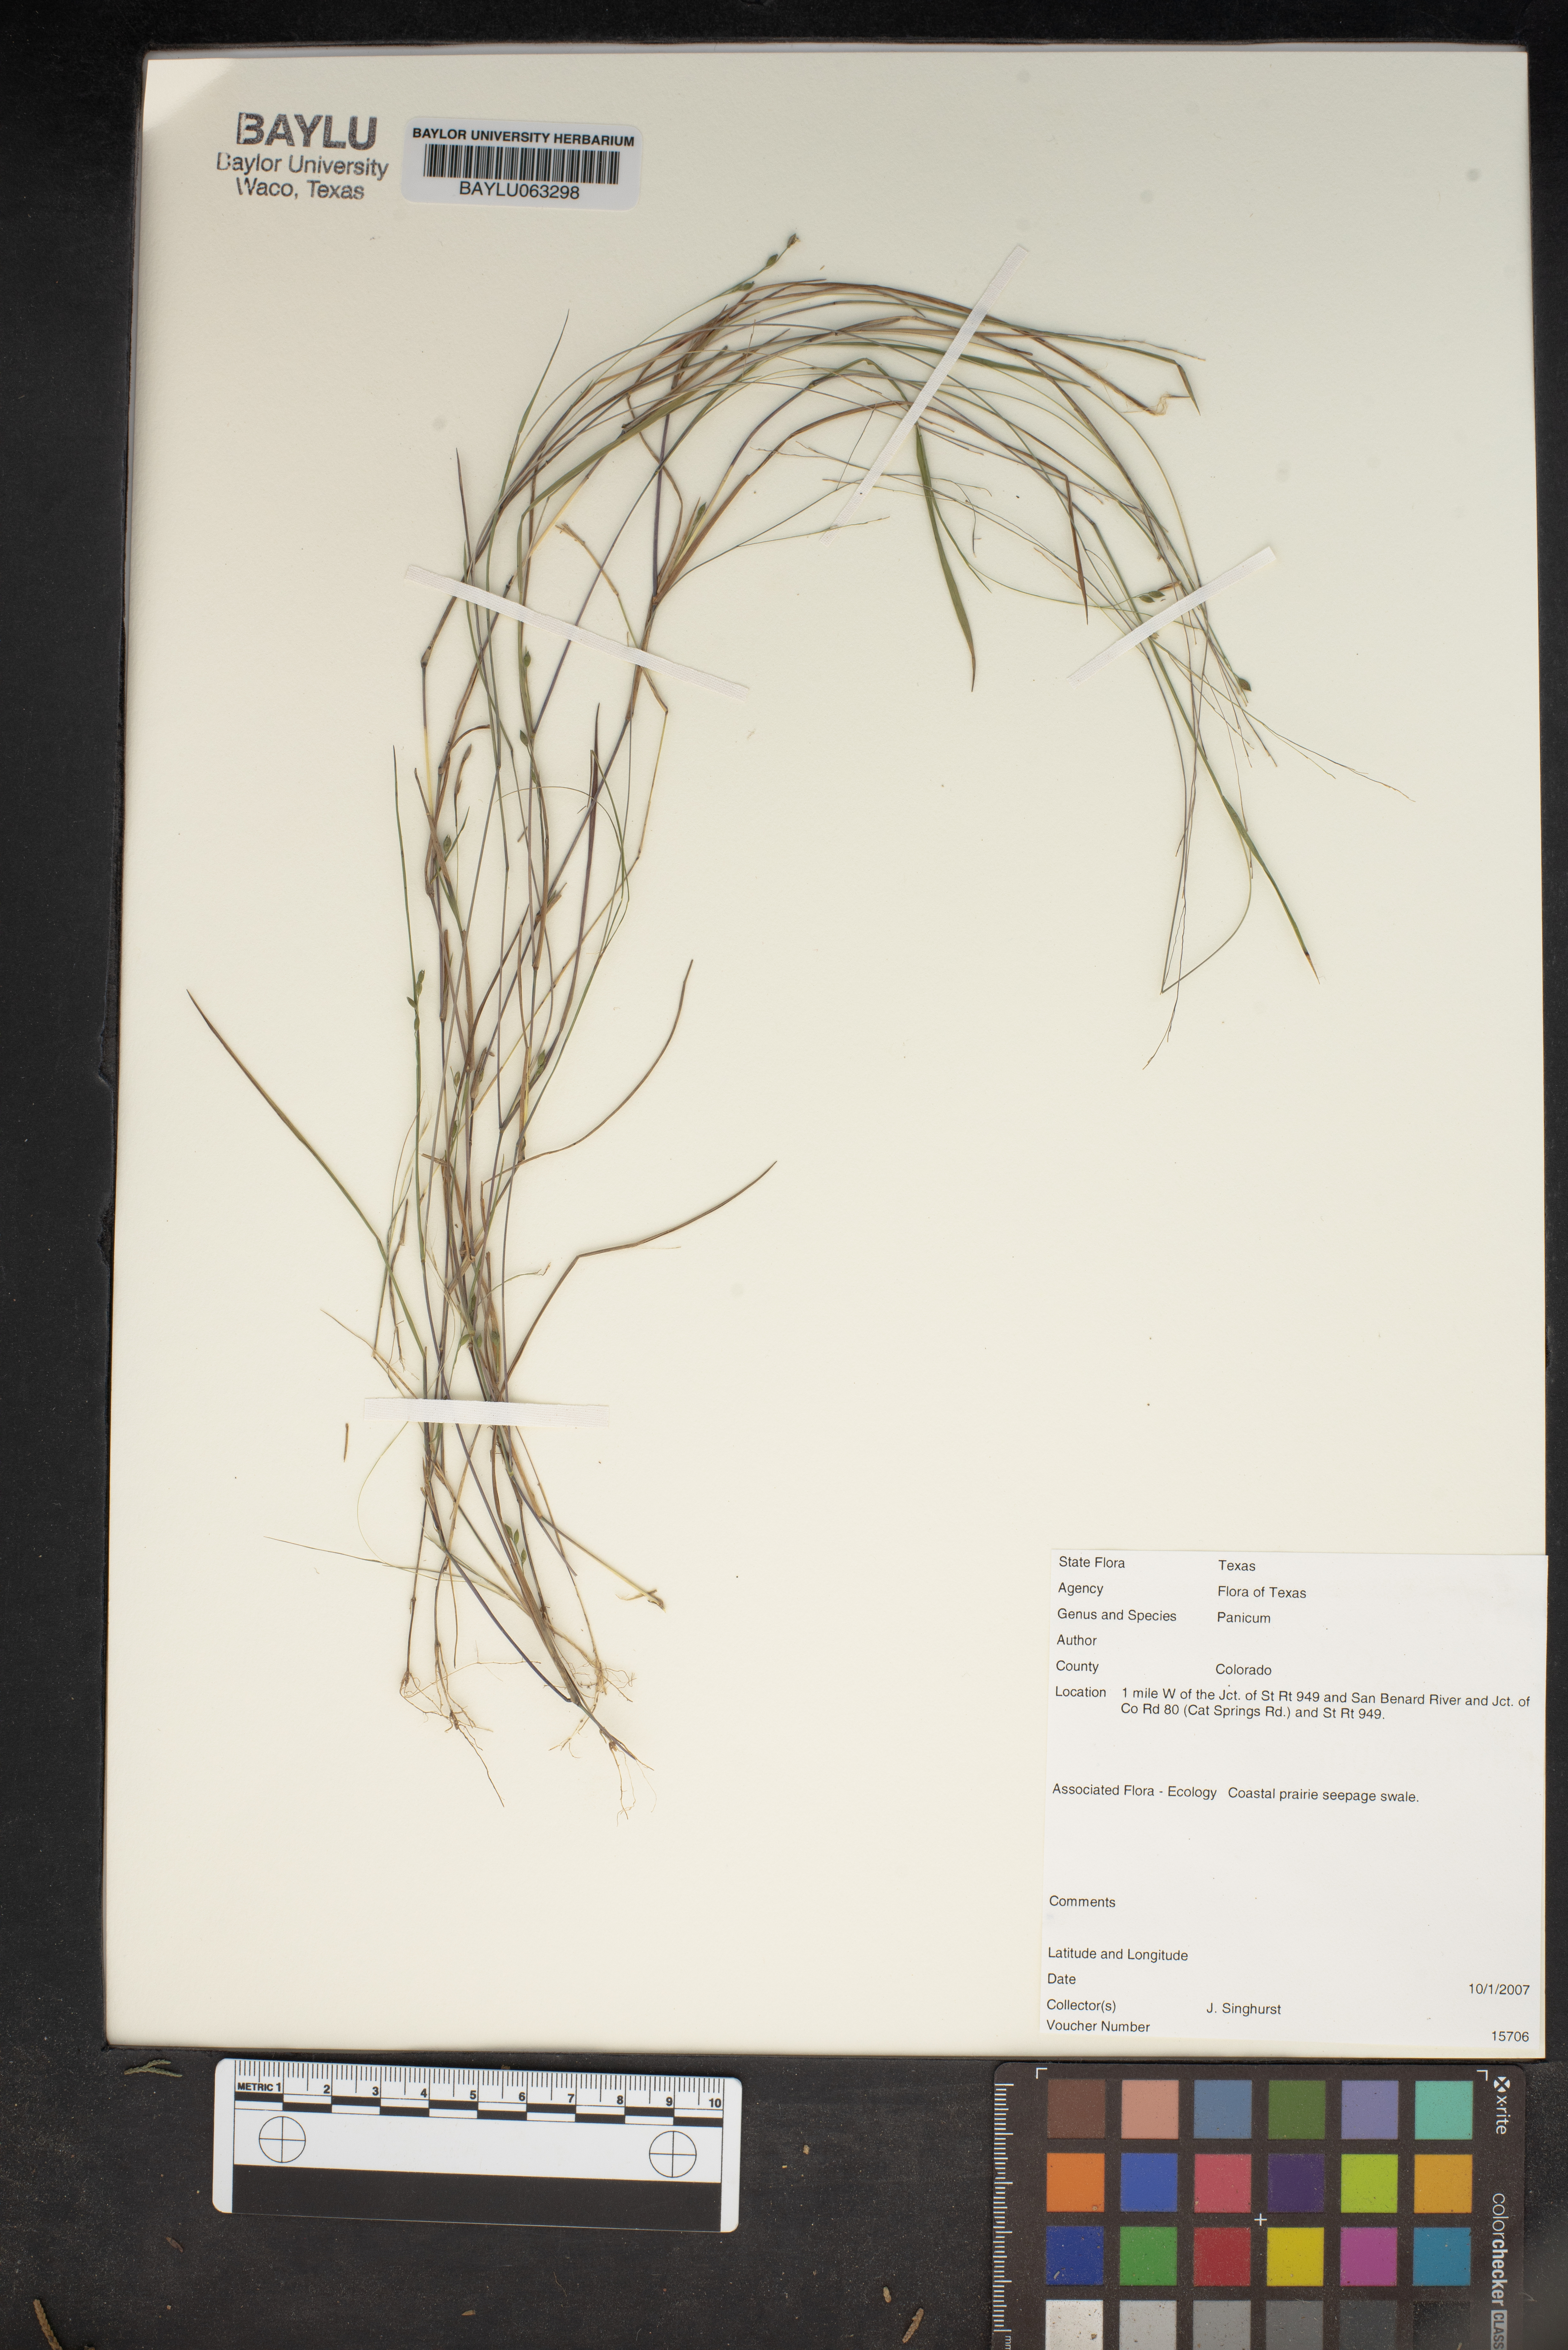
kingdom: Plantae
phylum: Tracheophyta
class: Liliopsida
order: Poales
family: Poaceae
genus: Panicum
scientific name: Panicum
